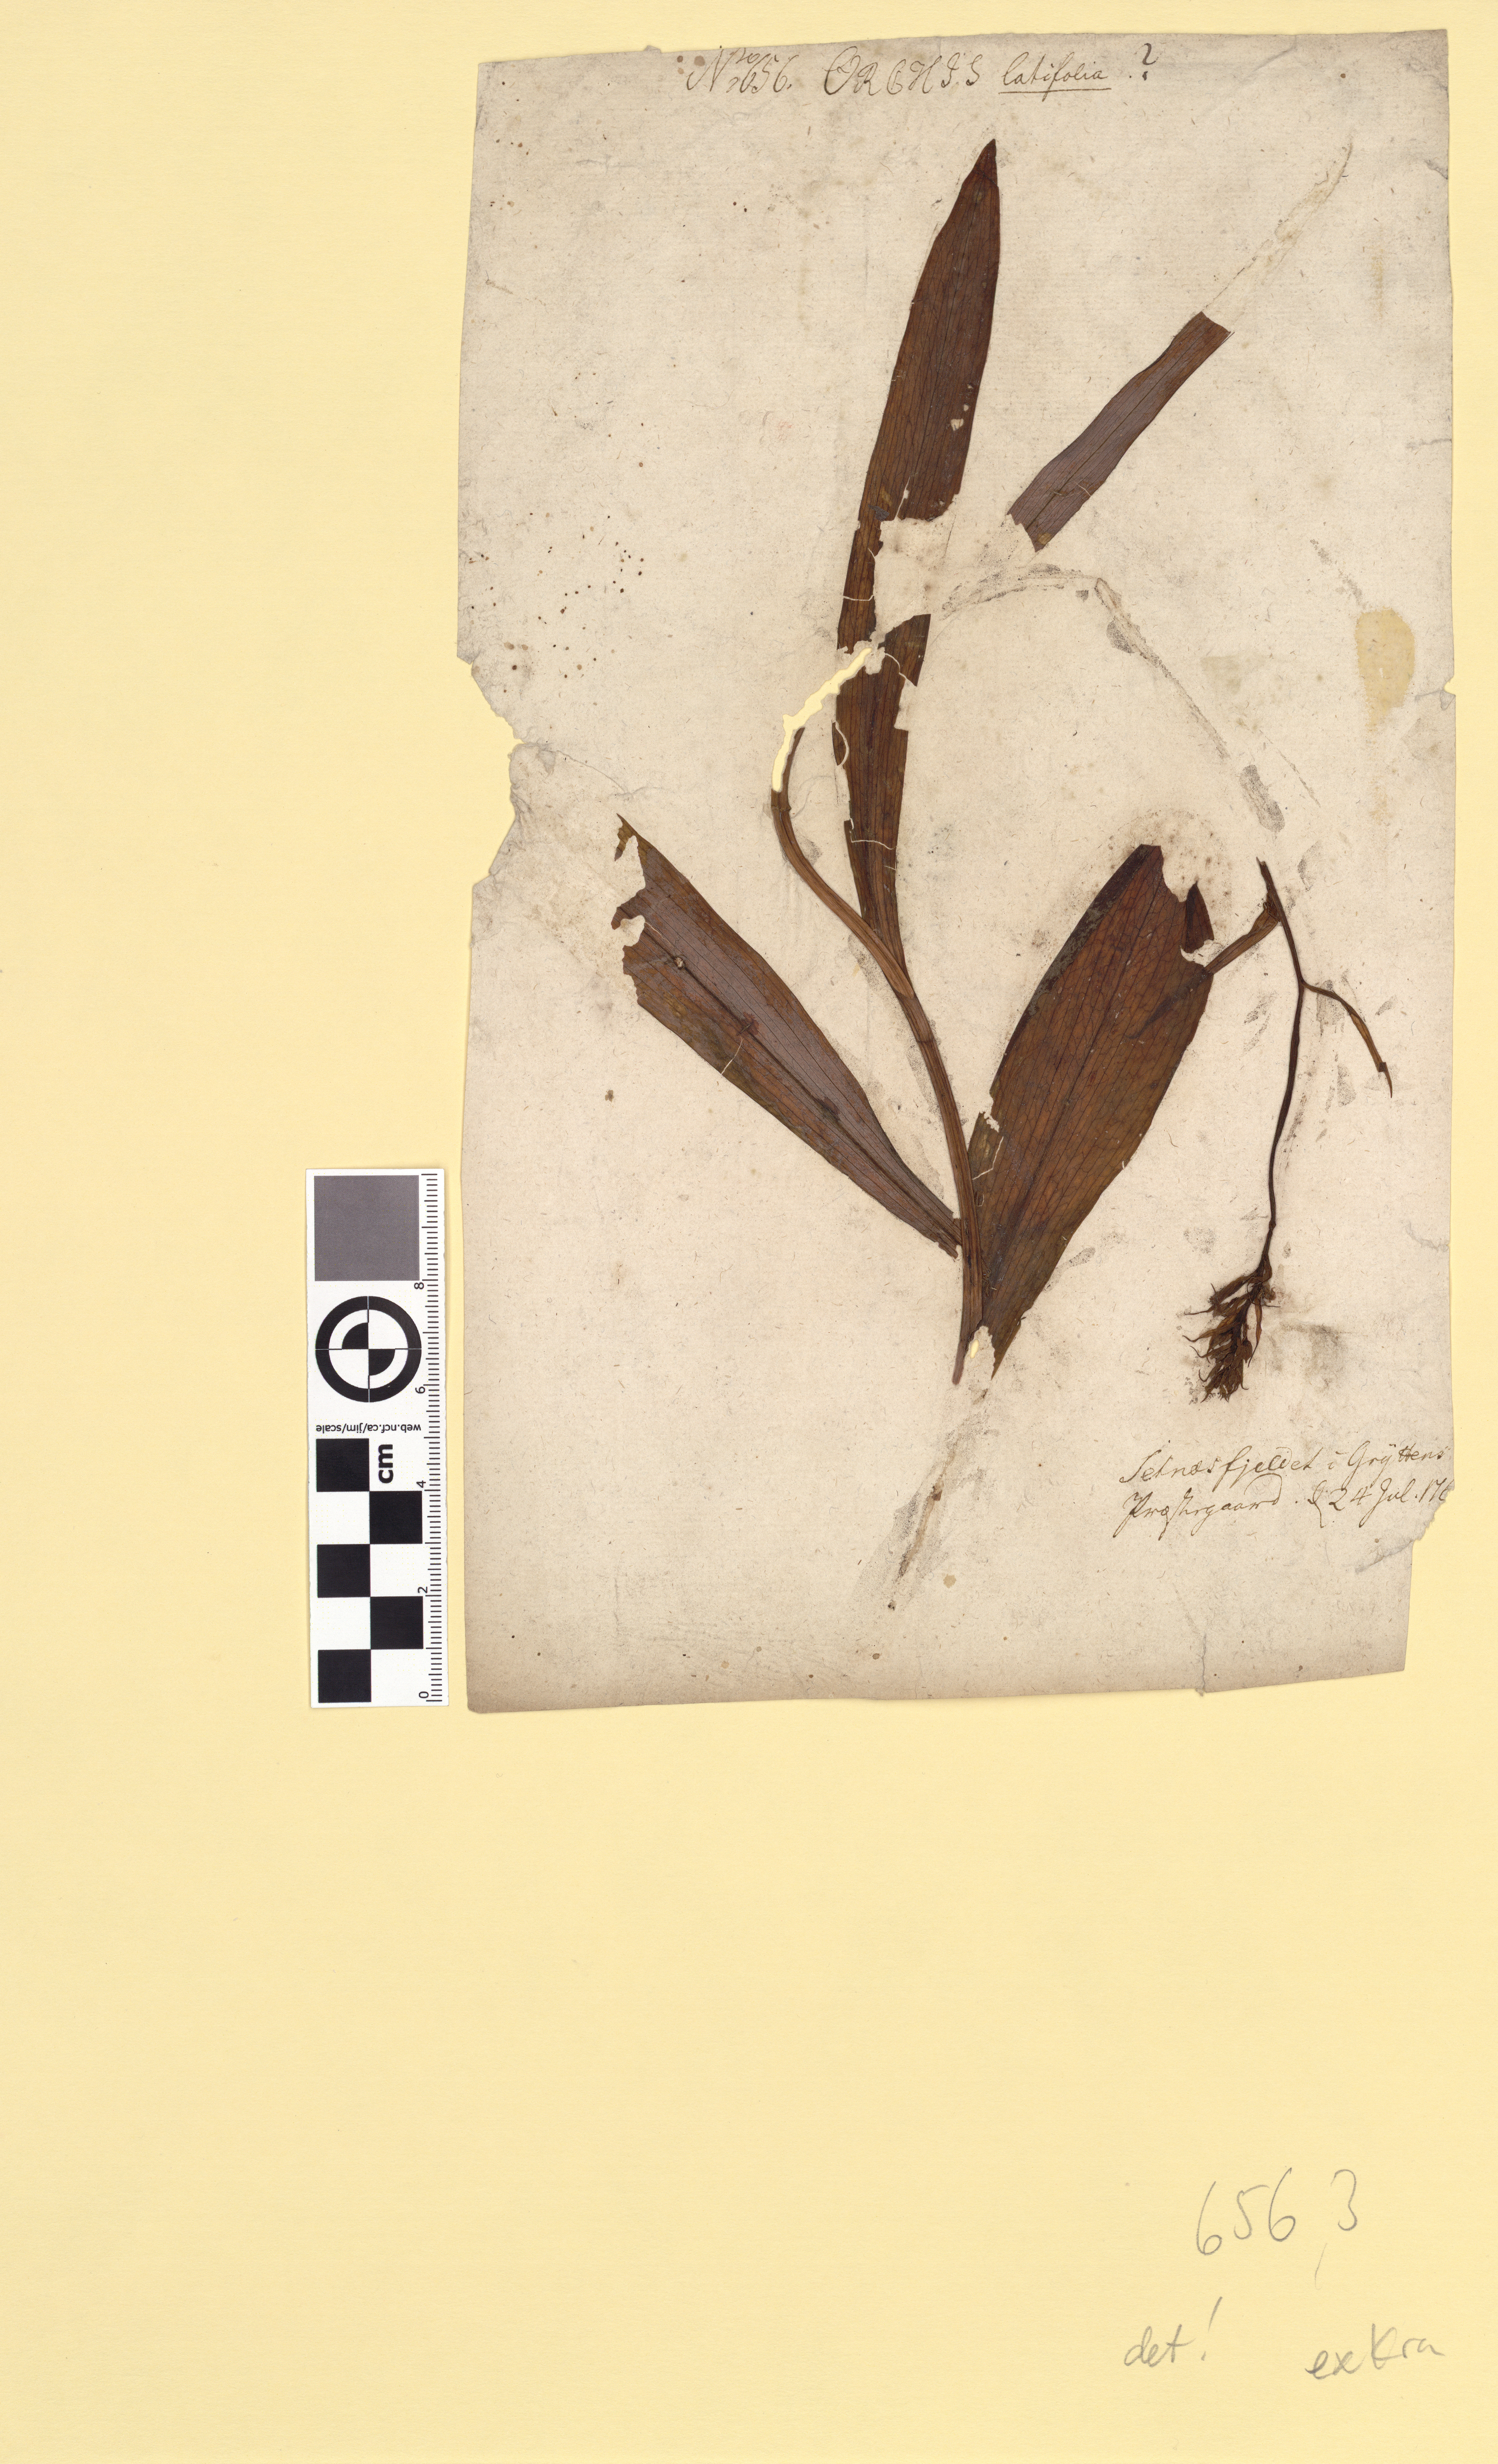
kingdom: Plantae
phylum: Tracheophyta
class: Liliopsida
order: Asparagales
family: Orchidaceae
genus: Dactylorhiza
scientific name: Dactylorhiza maculata
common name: Heath spotted-orchid
